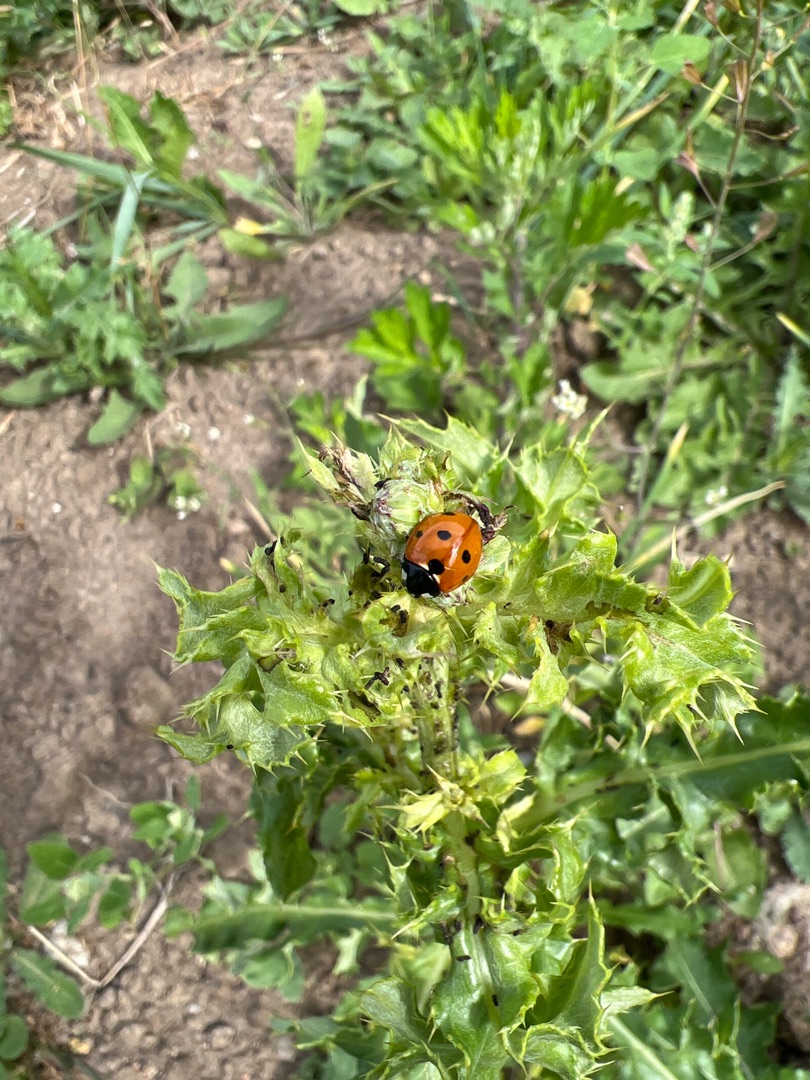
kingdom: Animalia
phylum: Arthropoda
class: Insecta
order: Coleoptera
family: Coccinellidae
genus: Coccinella
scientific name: Coccinella septempunctata
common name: Syvplettet mariehøne
